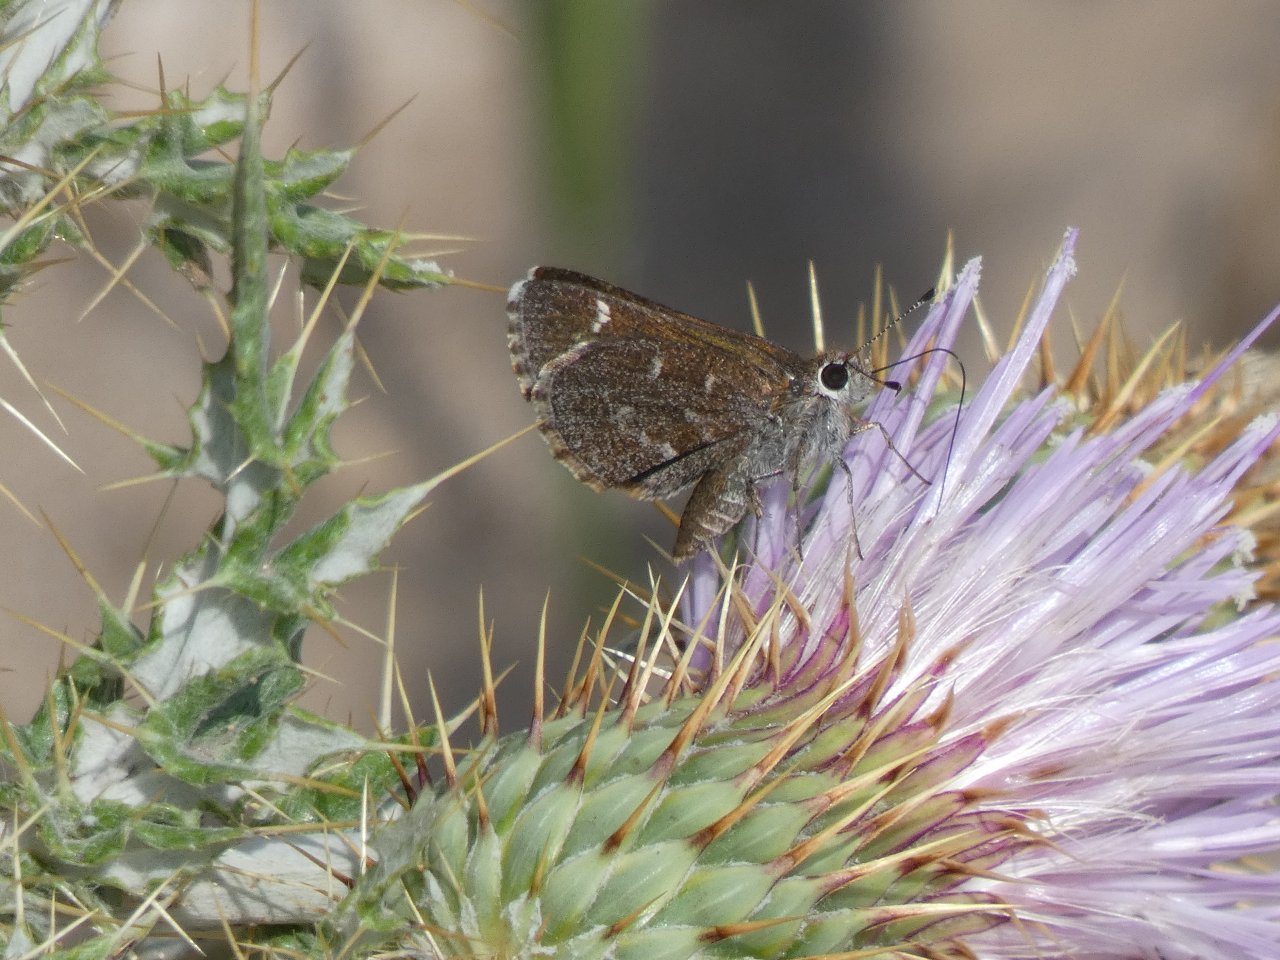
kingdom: Animalia
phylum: Arthropoda
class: Insecta
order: Lepidoptera
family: Hesperiidae
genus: Mastor
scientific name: Mastor aenus
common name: Bronze Roadside-Skipper
